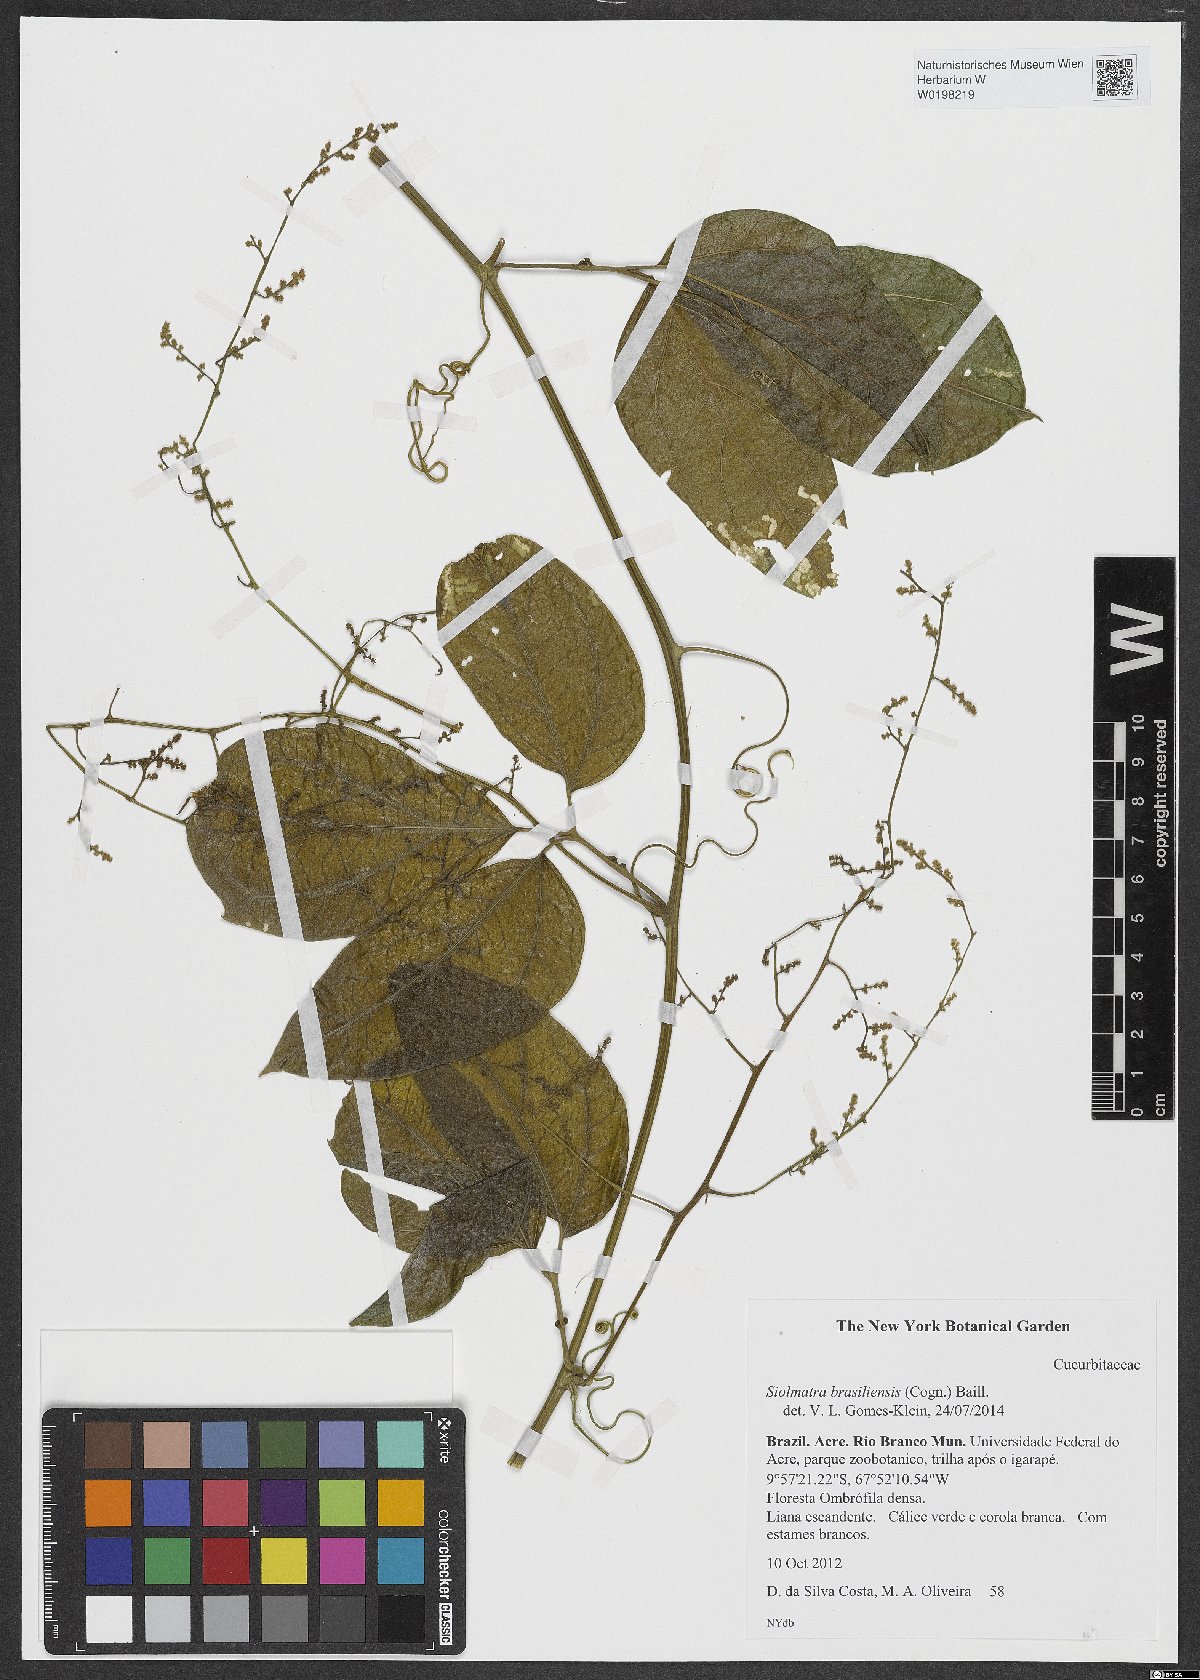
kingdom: Plantae
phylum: Tracheophyta
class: Magnoliopsida
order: Cucurbitales
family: Cucurbitaceae
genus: Siolmatra
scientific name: Siolmatra brasiliensis
